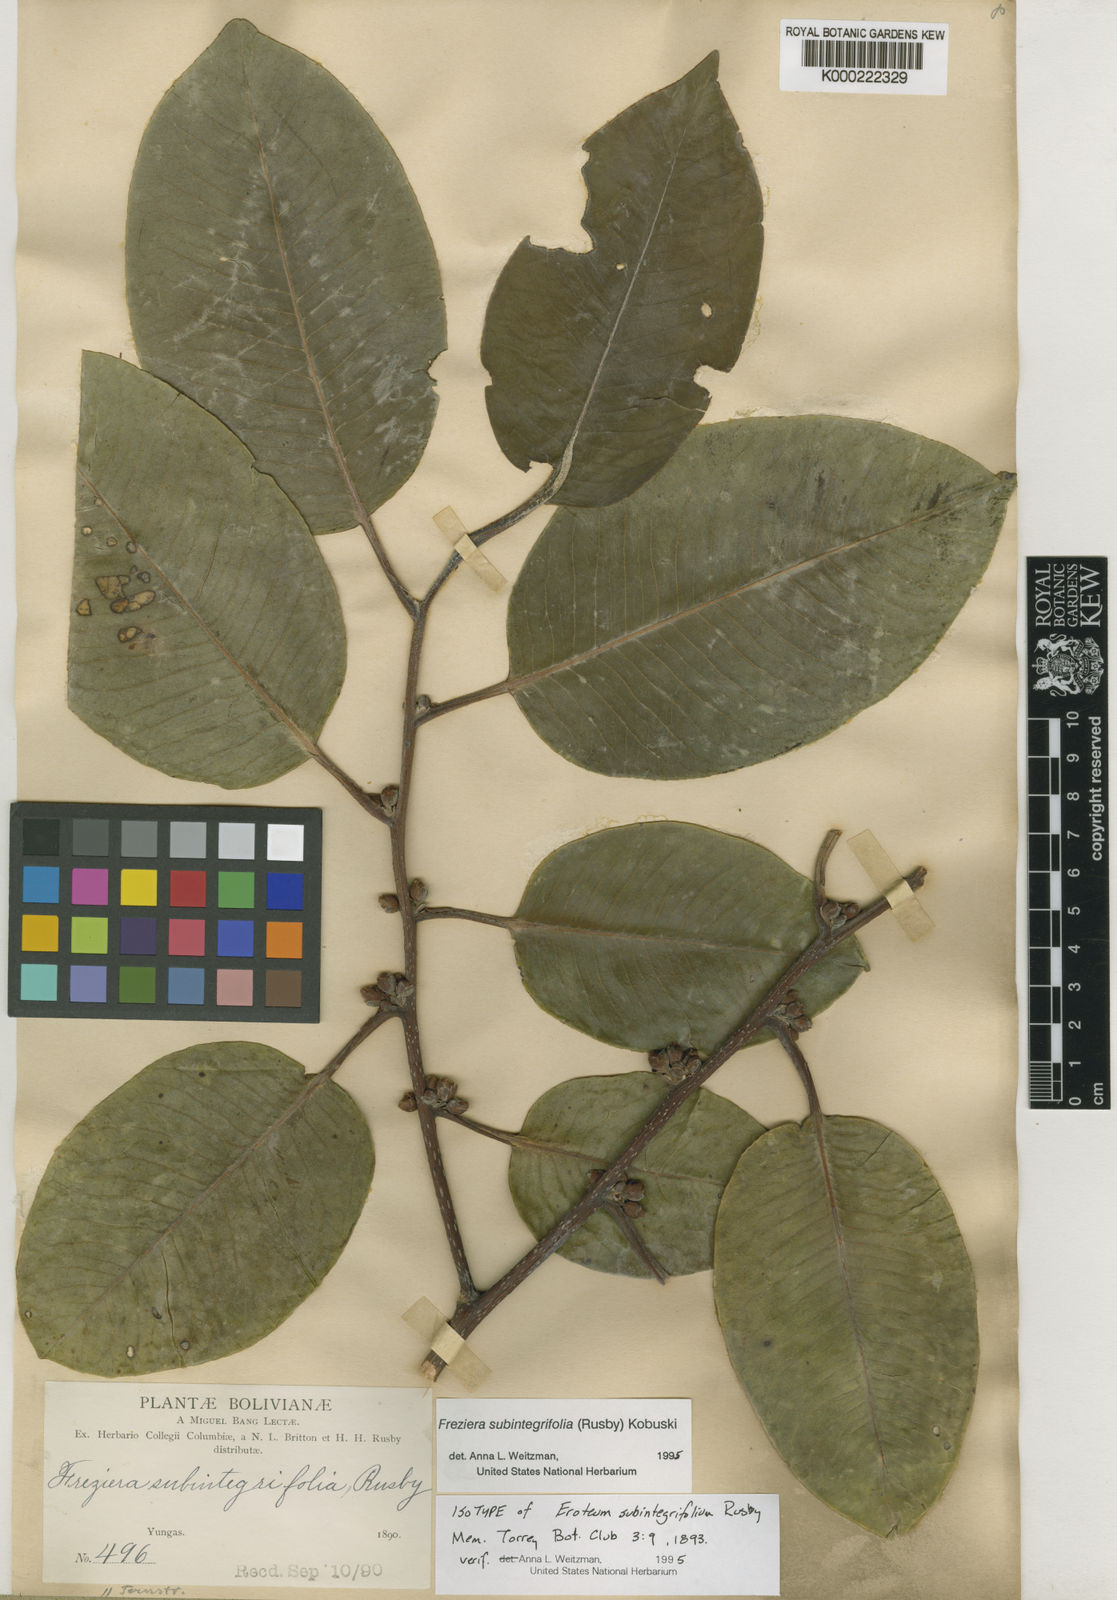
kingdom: Plantae
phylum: Tracheophyta
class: Magnoliopsida
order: Ericales
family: Pentaphylacaceae
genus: Freziera
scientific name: Freziera subintegrifolia
